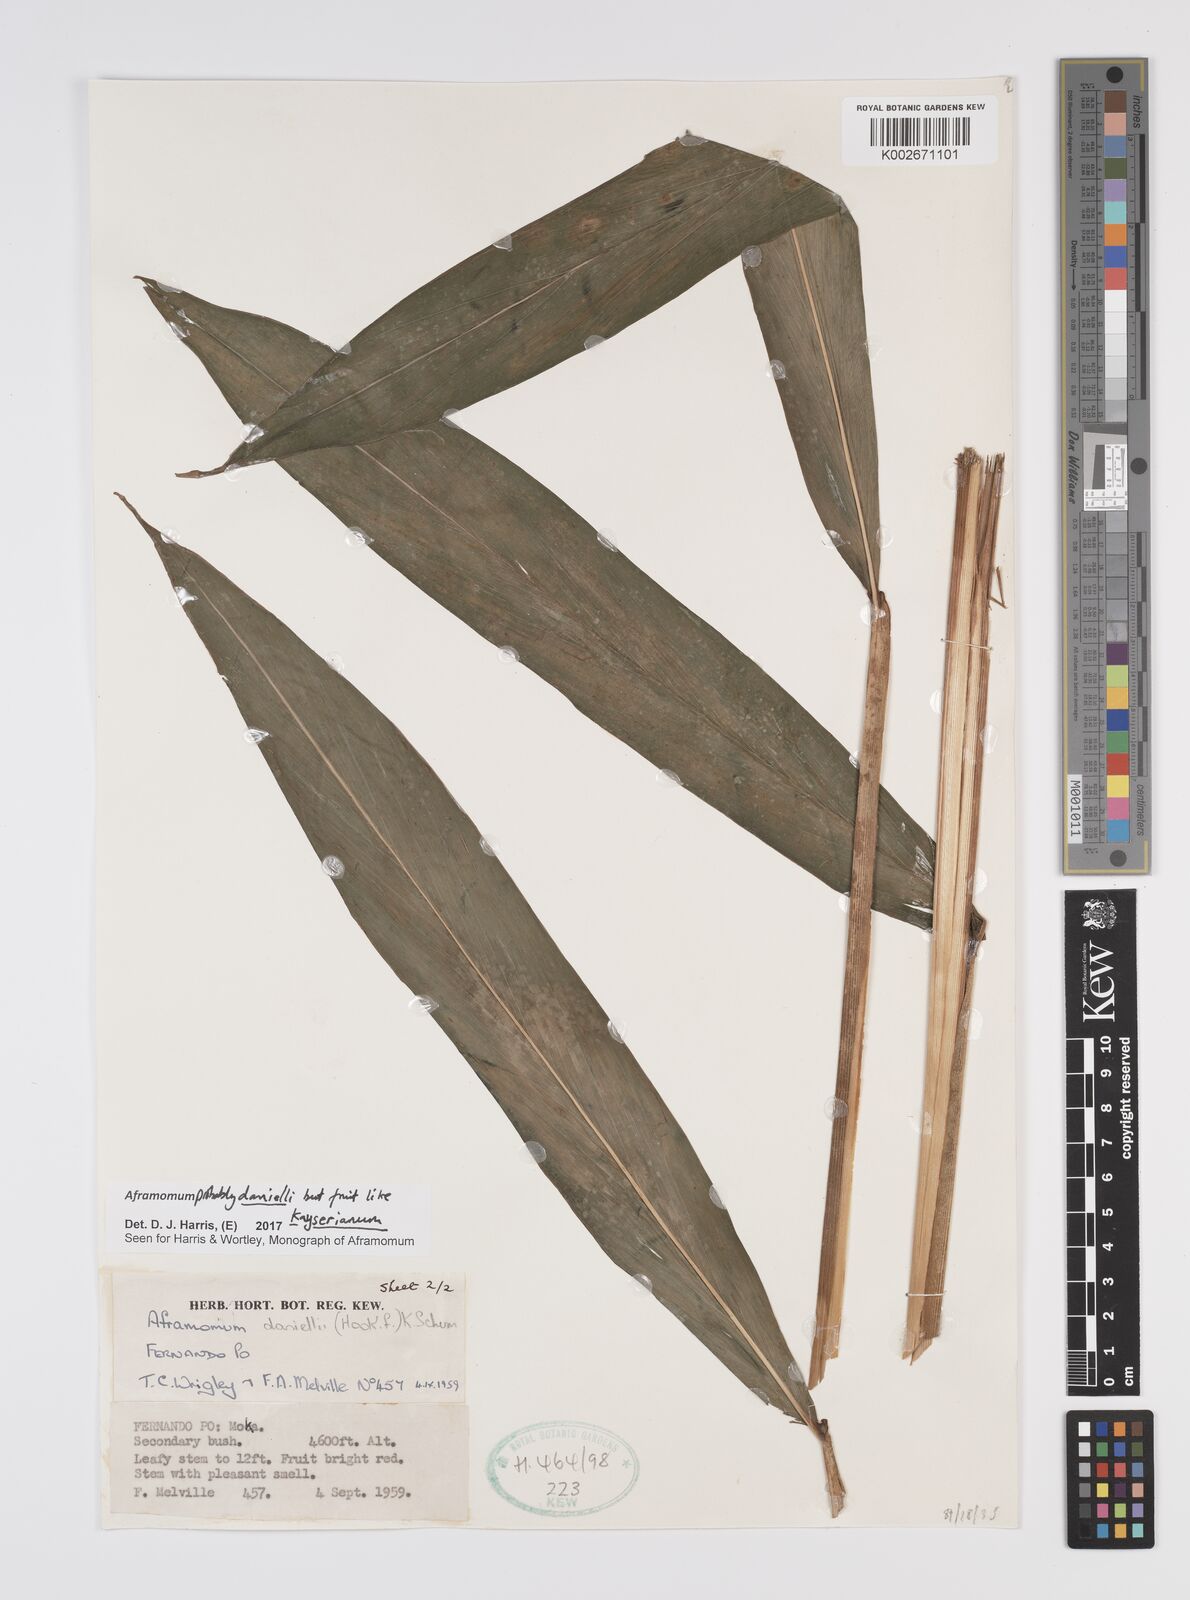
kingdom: Plantae
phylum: Tracheophyta
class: Liliopsida
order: Zingiberales
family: Zingiberaceae
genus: Aframomum
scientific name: Aframomum daniellii
